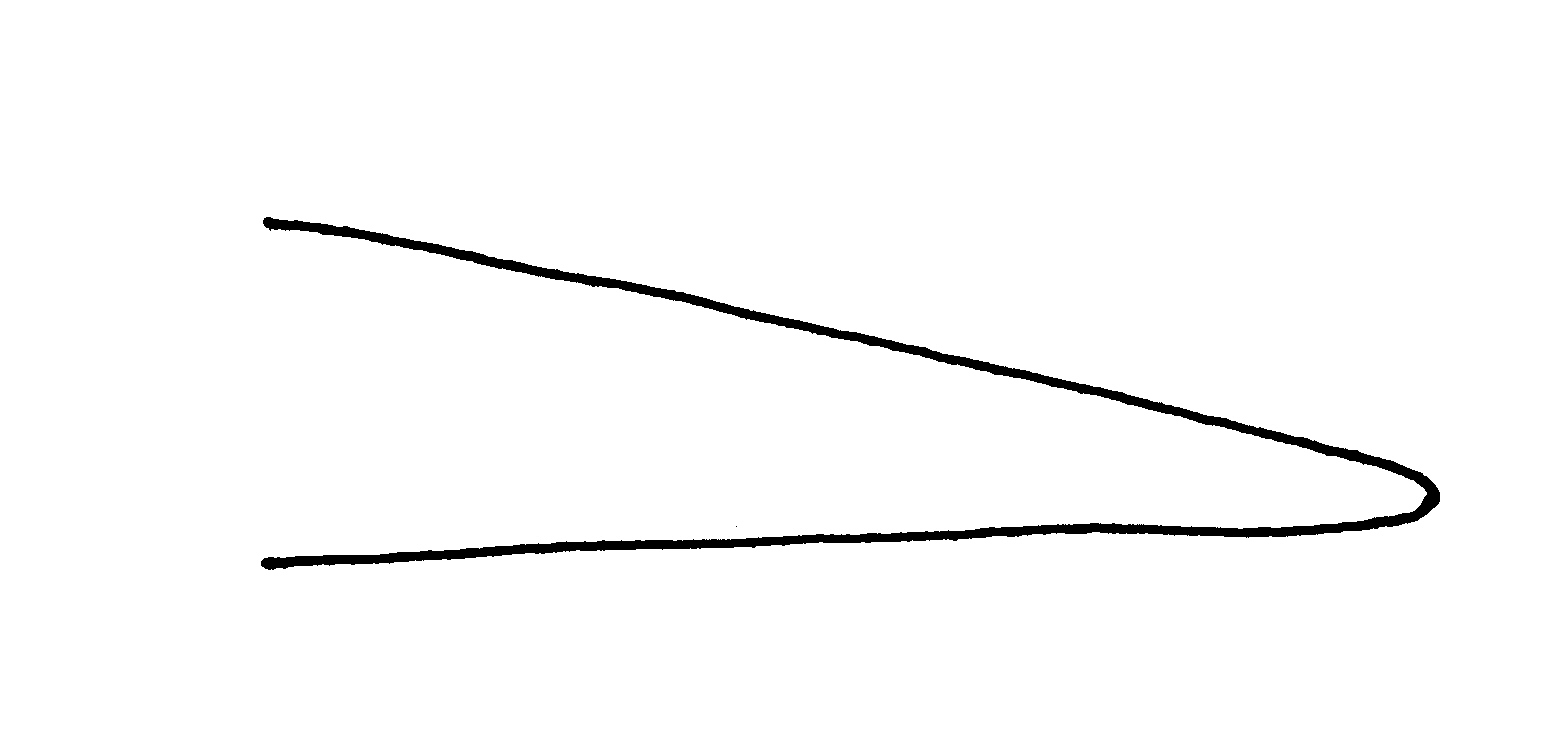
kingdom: Animalia
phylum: Chordata
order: Anguilliformes
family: Ophichthidae
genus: Ichthyapus
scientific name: Ichthyapus
